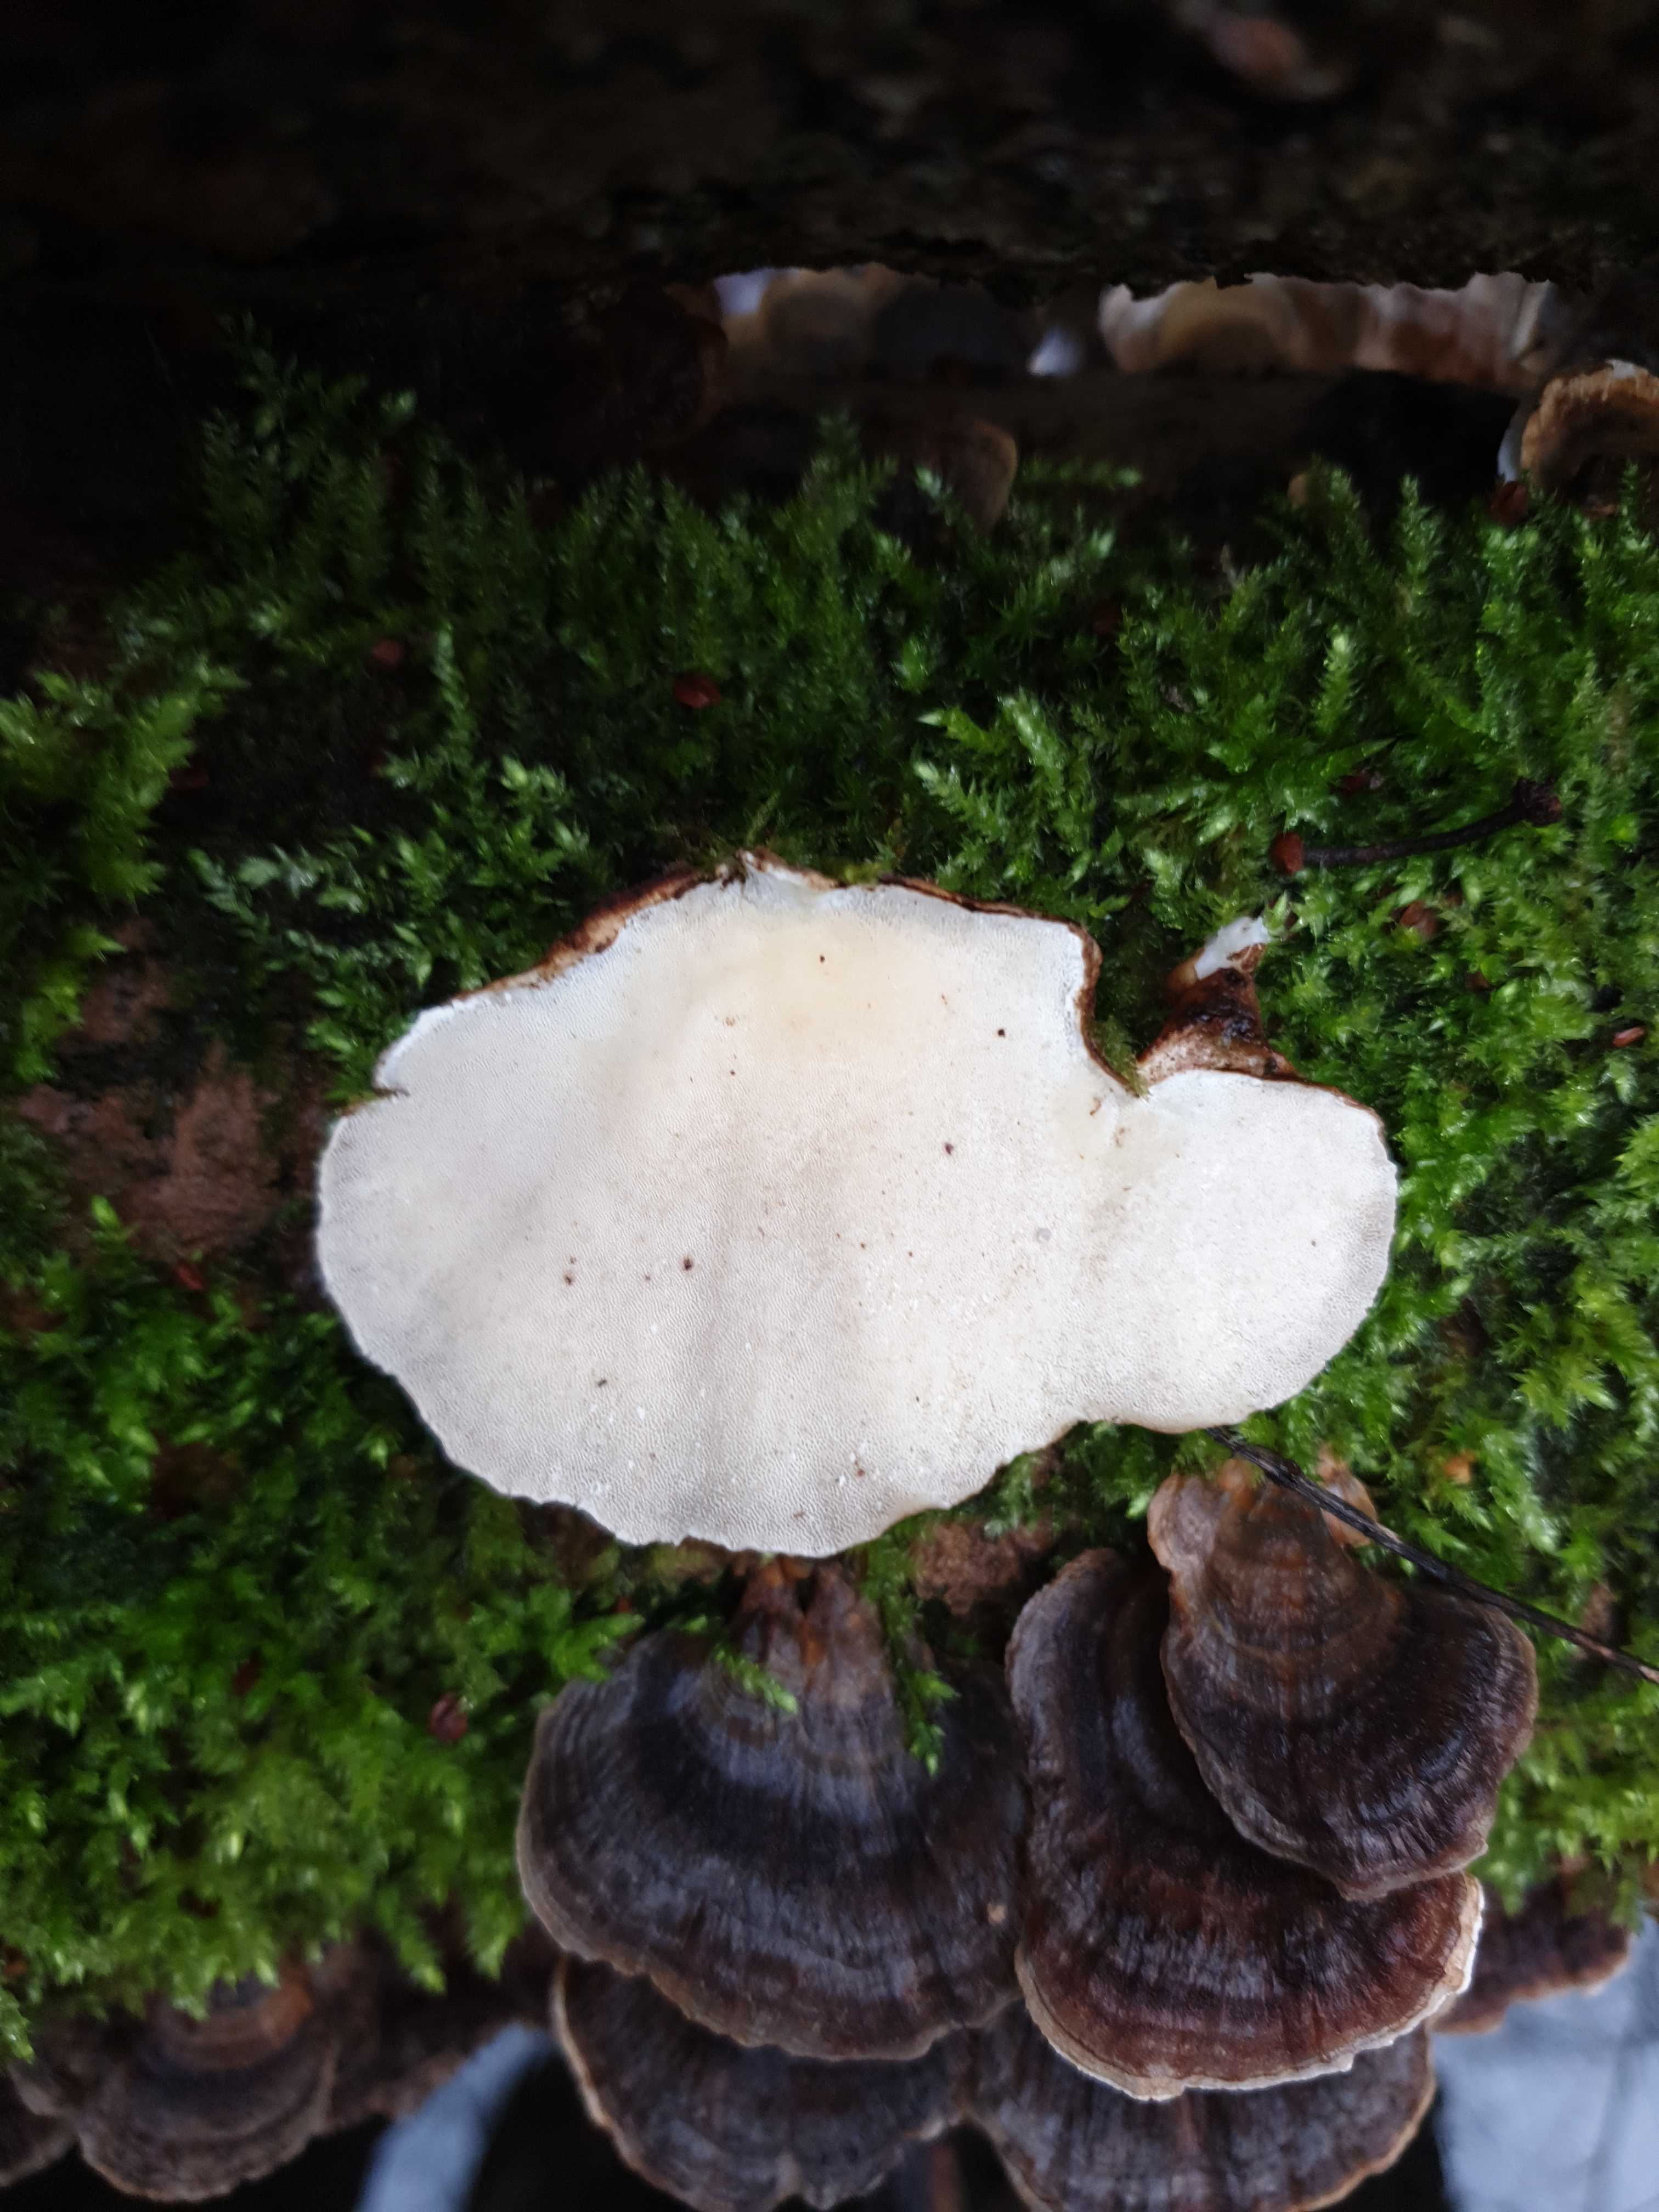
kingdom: Fungi
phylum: Basidiomycota
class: Agaricomycetes
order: Polyporales
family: Polyporaceae
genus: Trametes
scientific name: Trametes versicolor
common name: broget læderporesvamp
